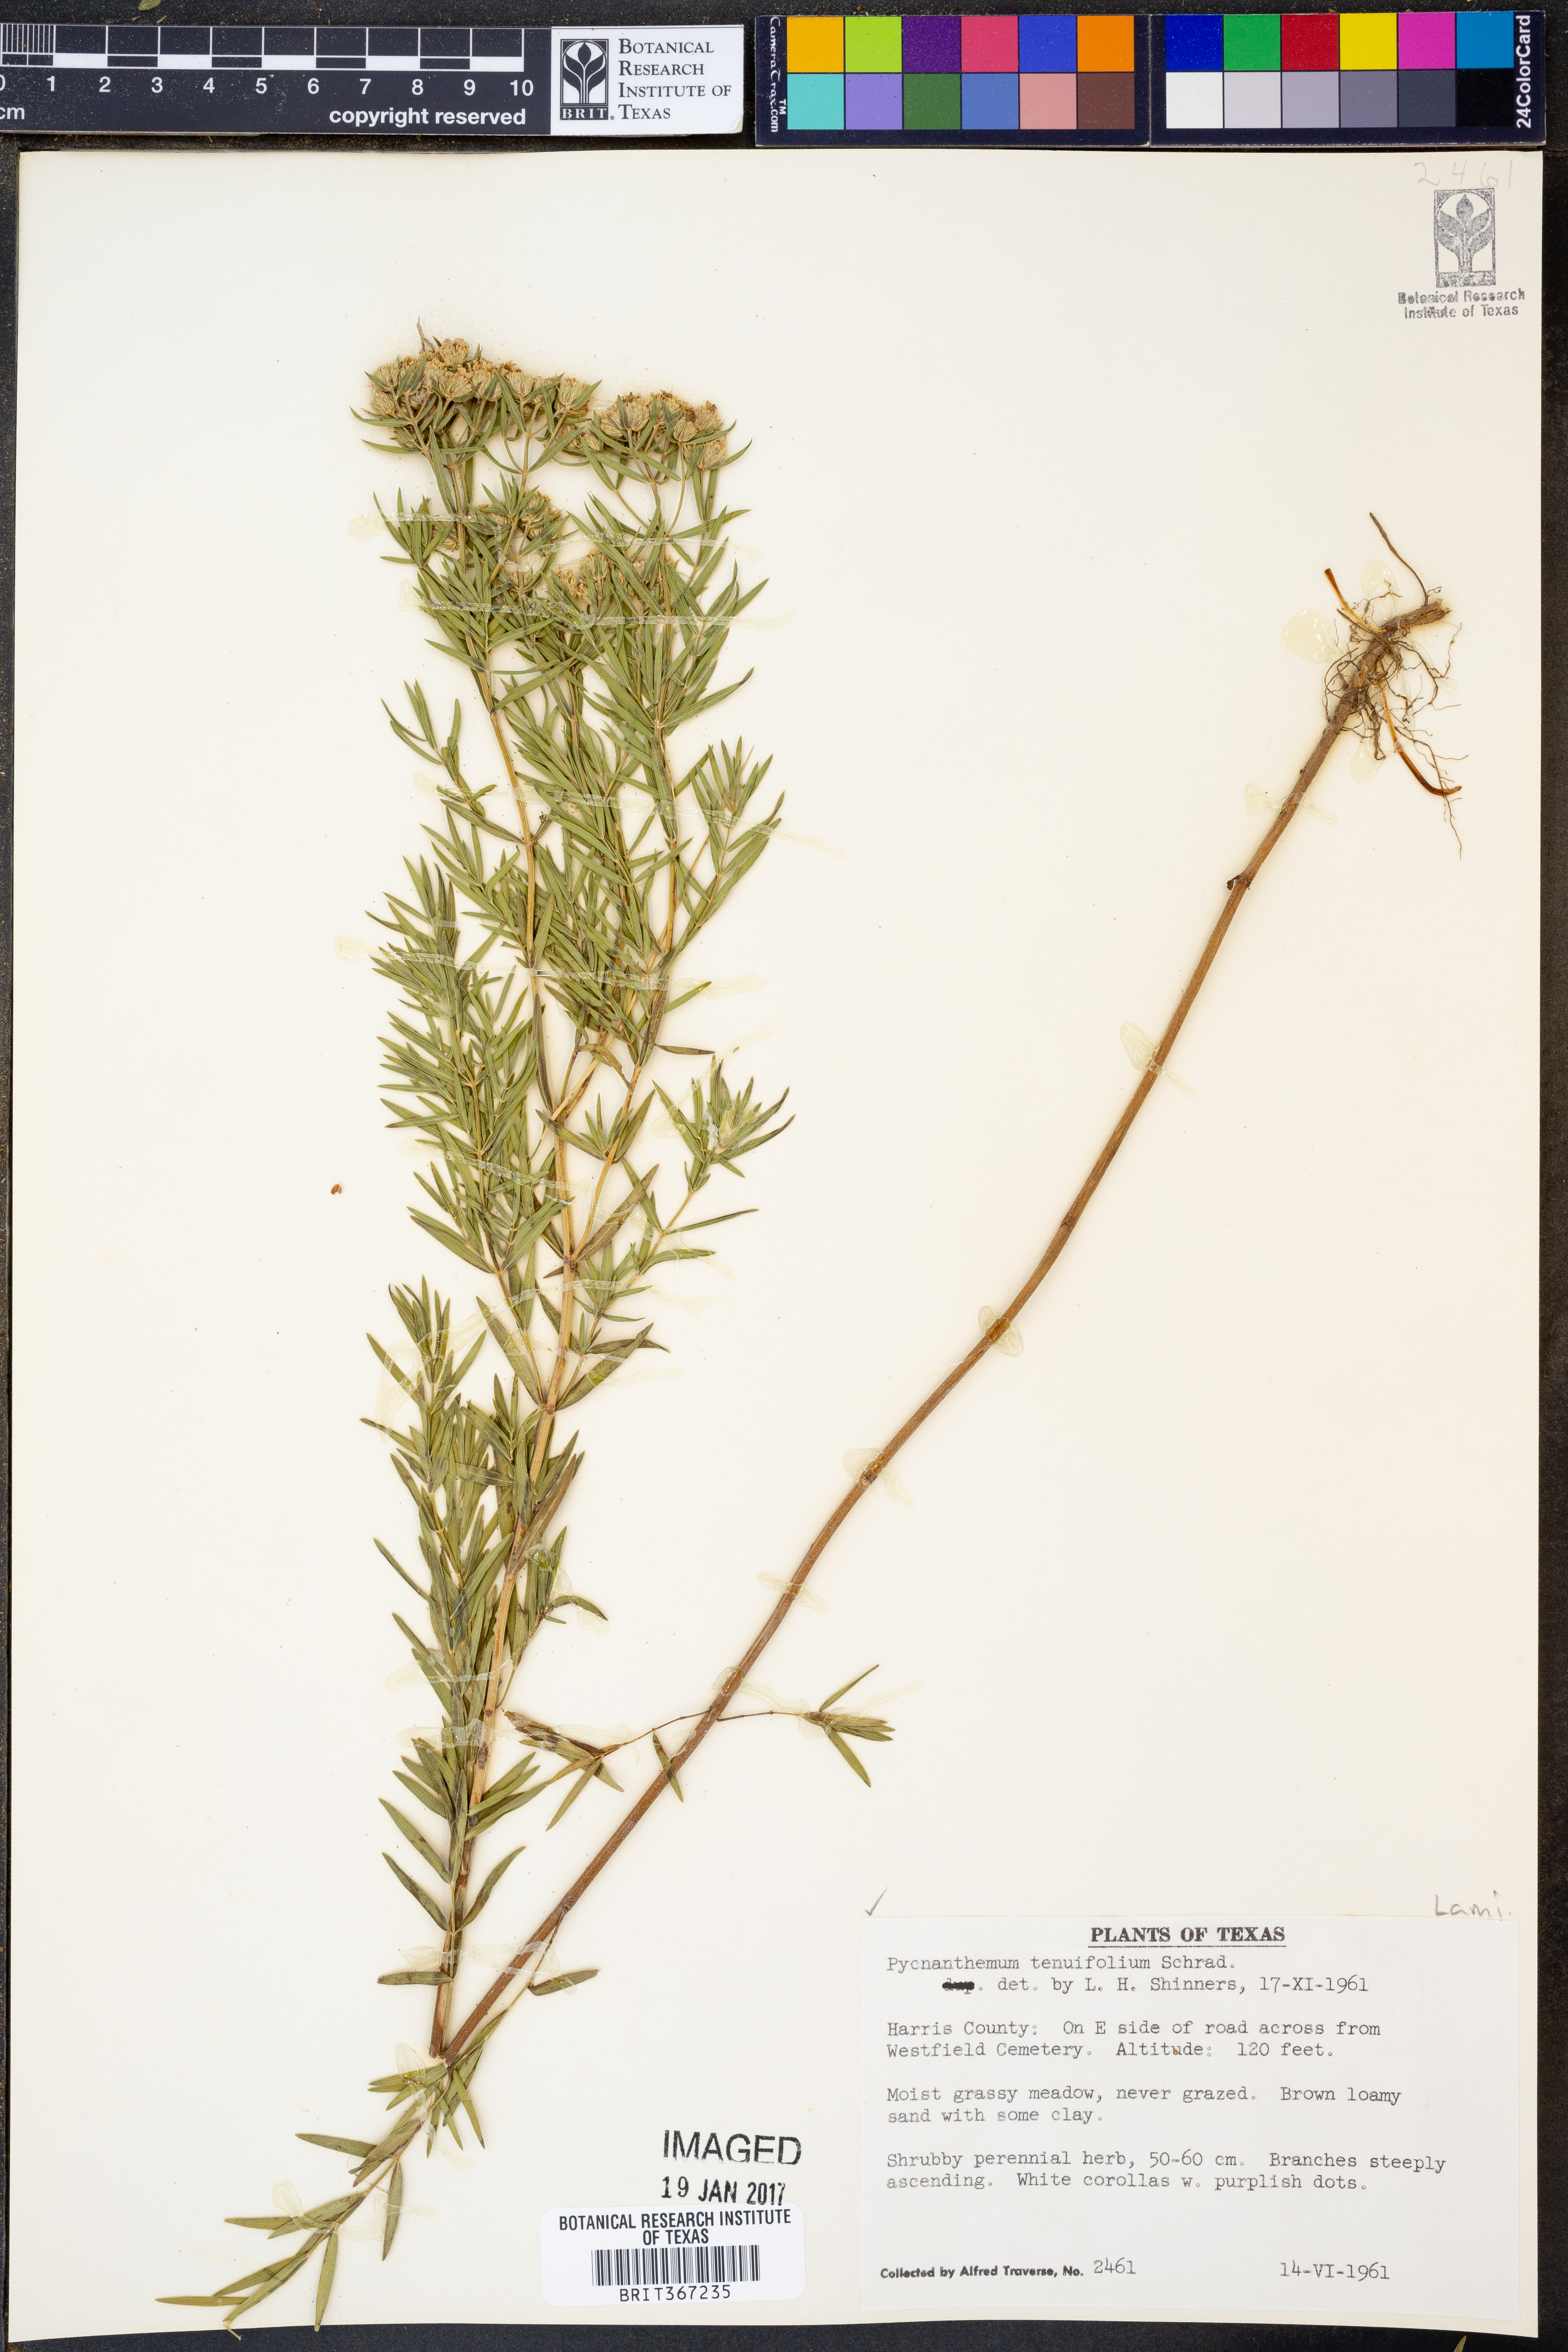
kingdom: Plantae
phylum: Tracheophyta
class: Magnoliopsida
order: Lamiales
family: Lamiaceae
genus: Pycnanthemum
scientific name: Pycnanthemum tenuifolium
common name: Narrow-leaf mountain-mint
